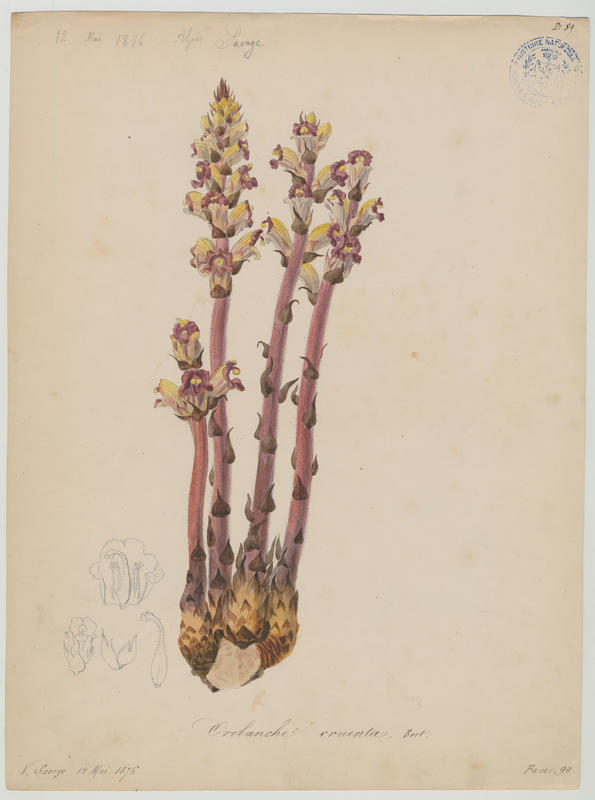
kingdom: Plantae
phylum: Tracheophyta
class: Magnoliopsida
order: Lamiales
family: Orobanchaceae
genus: Orobanche
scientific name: Orobanche gracilis
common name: Slender broomrape
